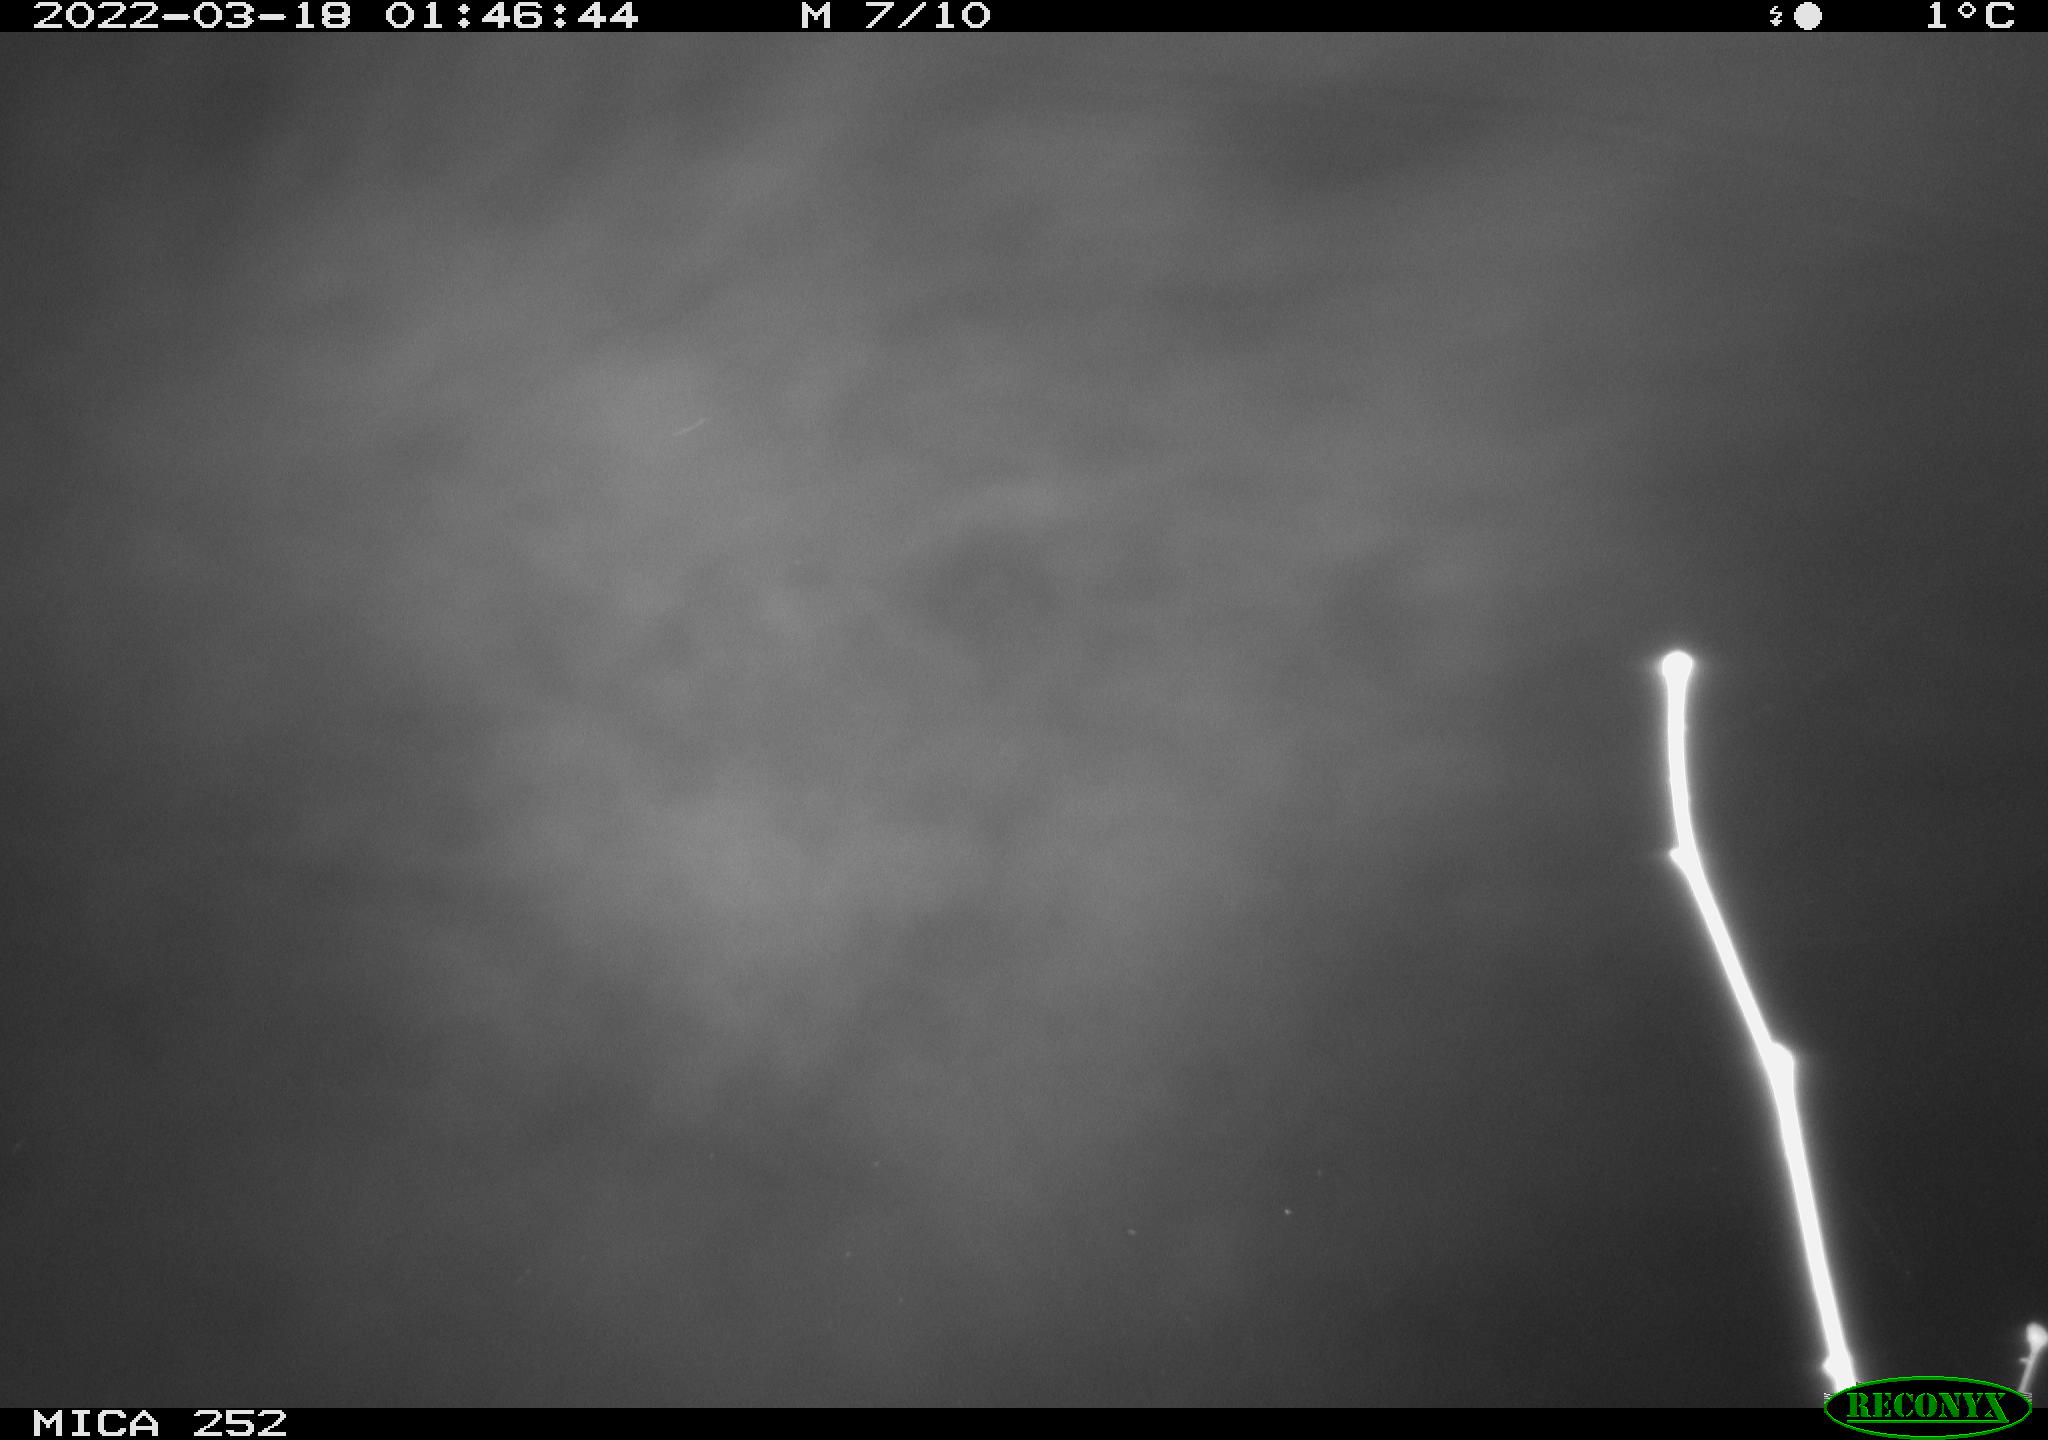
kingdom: Animalia
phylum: Chordata
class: Mammalia
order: Rodentia
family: Castoridae
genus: Castor
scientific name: Castor fiber
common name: Eurasian beaver
